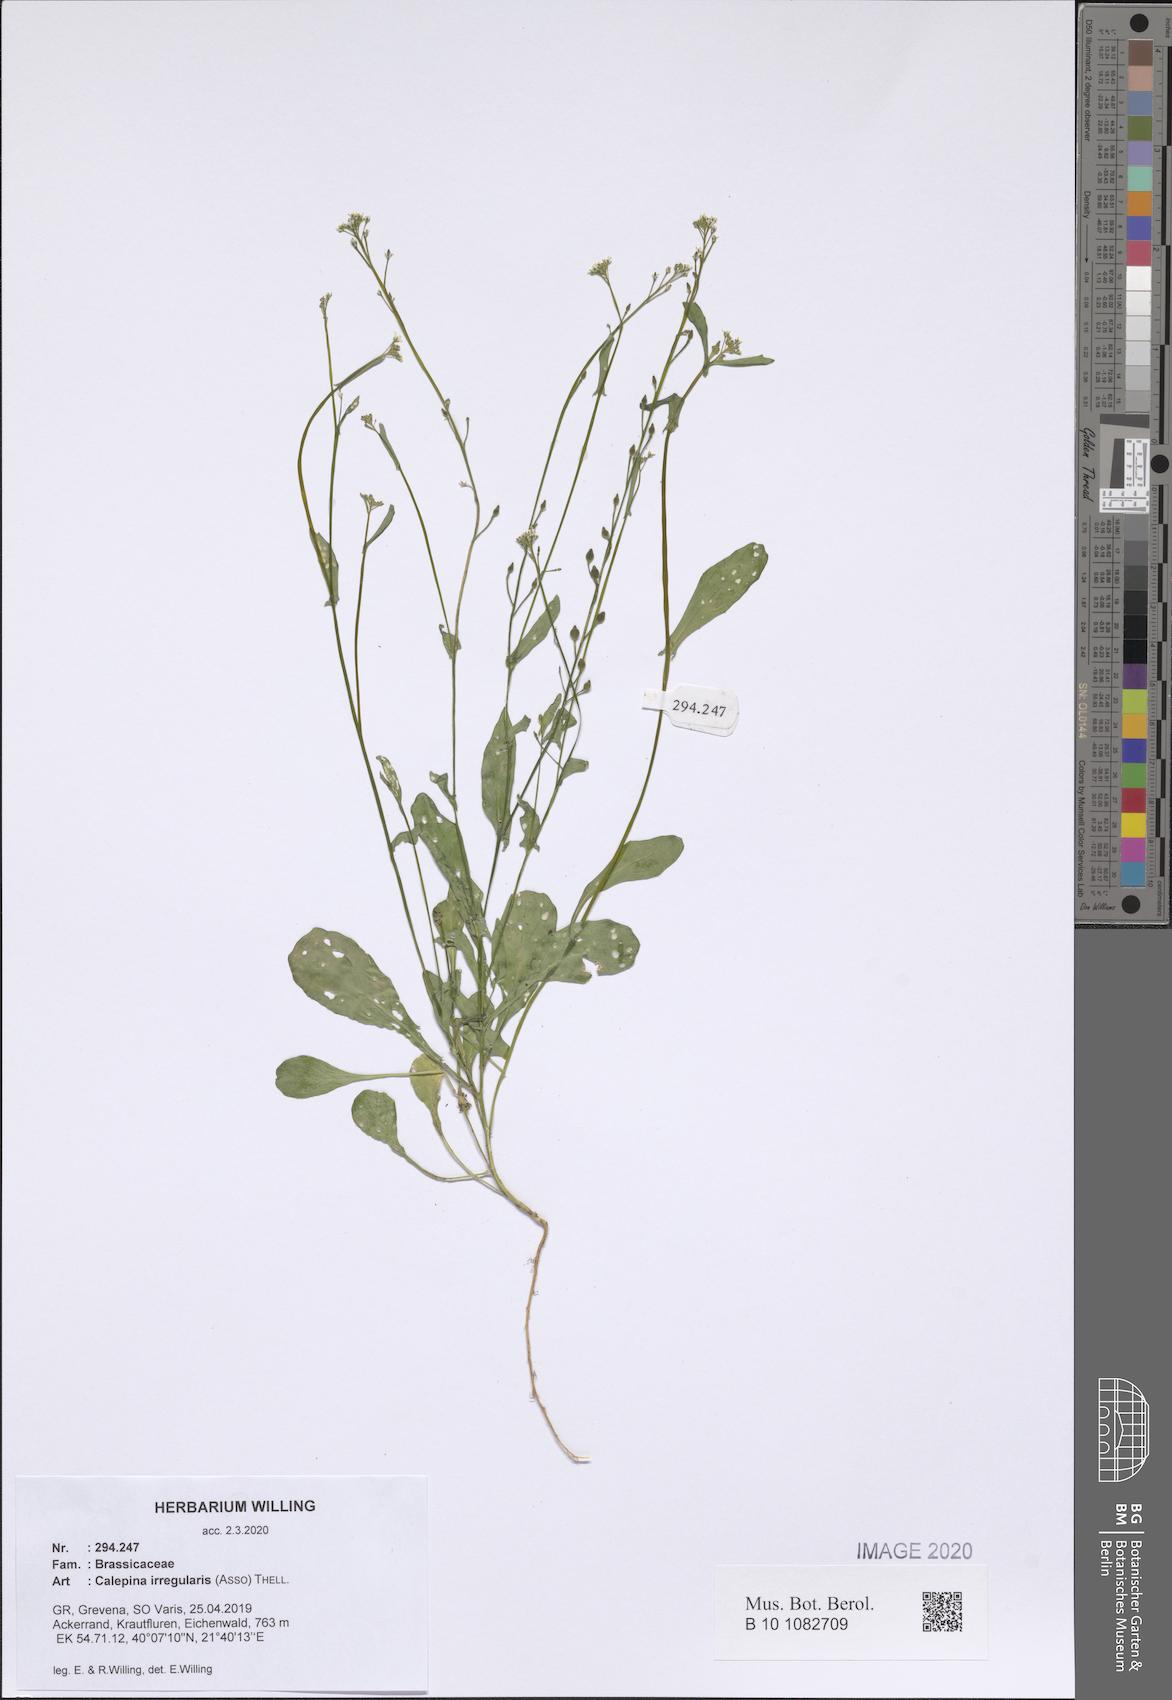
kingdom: Plantae
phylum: Tracheophyta
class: Magnoliopsida
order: Brassicales
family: Brassicaceae
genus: Calepina
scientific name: Calepina irregularis
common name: White ballmustard
